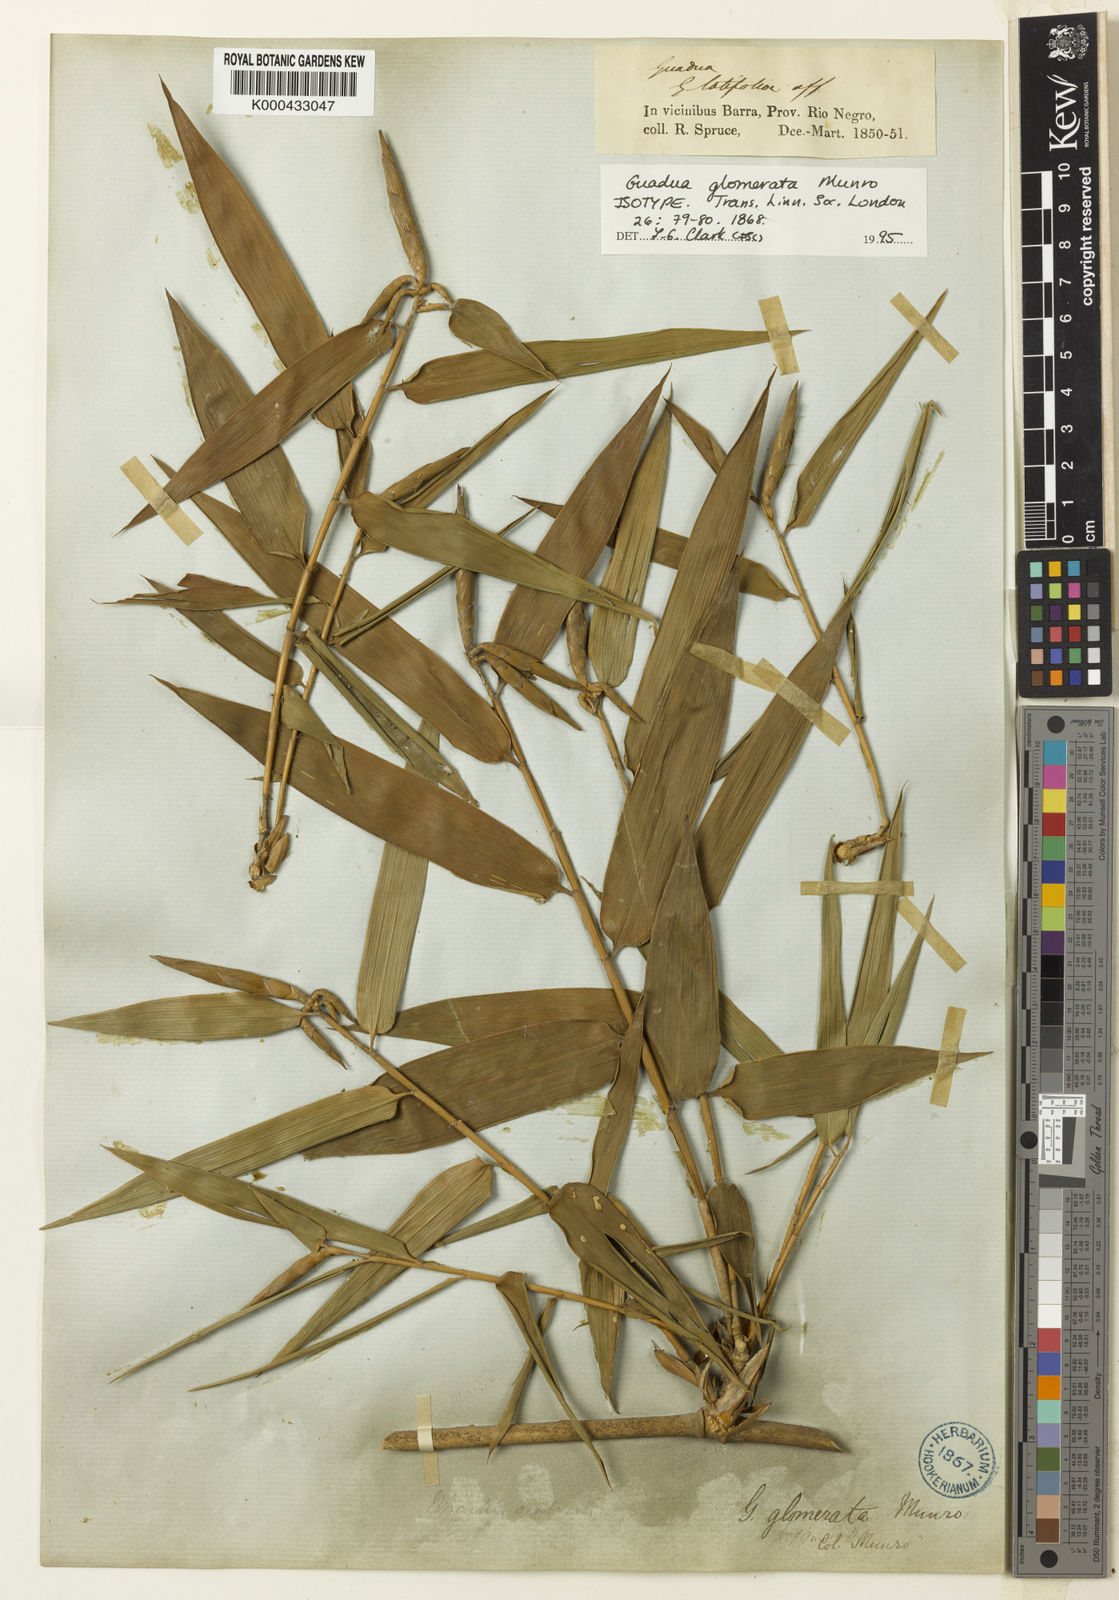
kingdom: Plantae
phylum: Tracheophyta
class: Liliopsida
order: Poales
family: Poaceae
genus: Guadua
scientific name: Guadua glomerata
